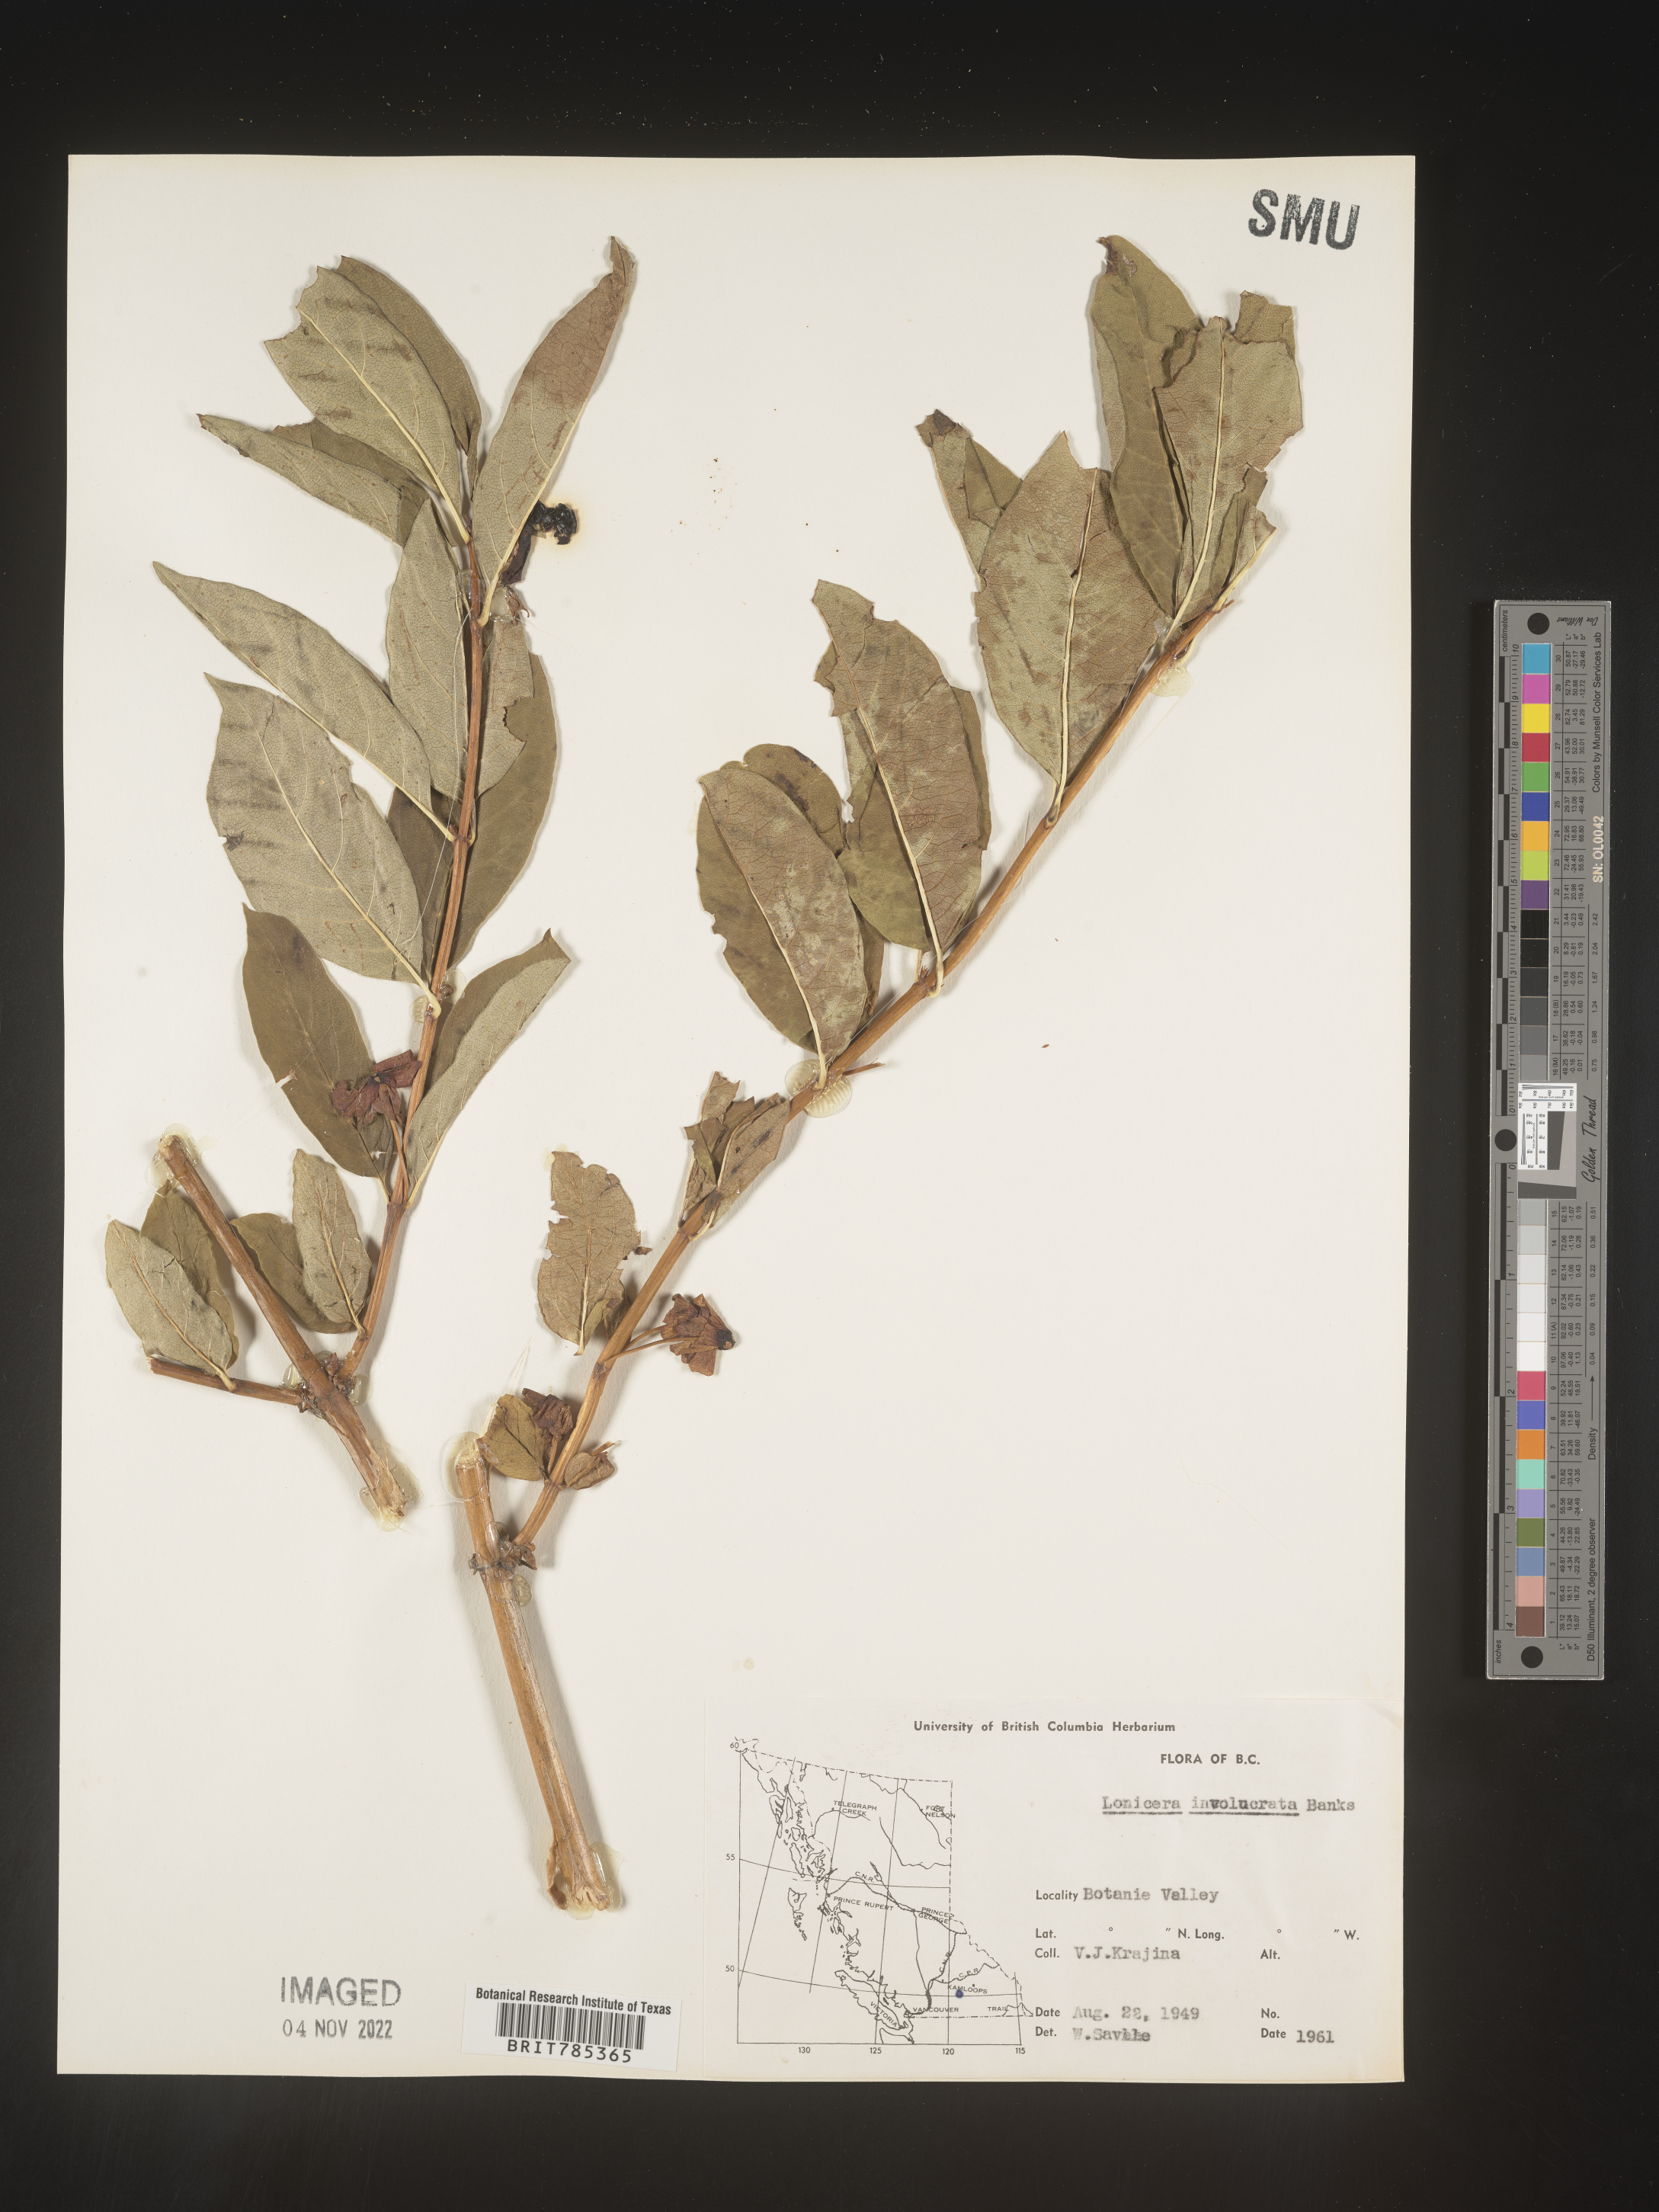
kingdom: Plantae
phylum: Tracheophyta
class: Magnoliopsida
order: Dipsacales
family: Caprifoliaceae
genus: Lonicera
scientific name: Lonicera involucrata
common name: Californian honeysuckle
